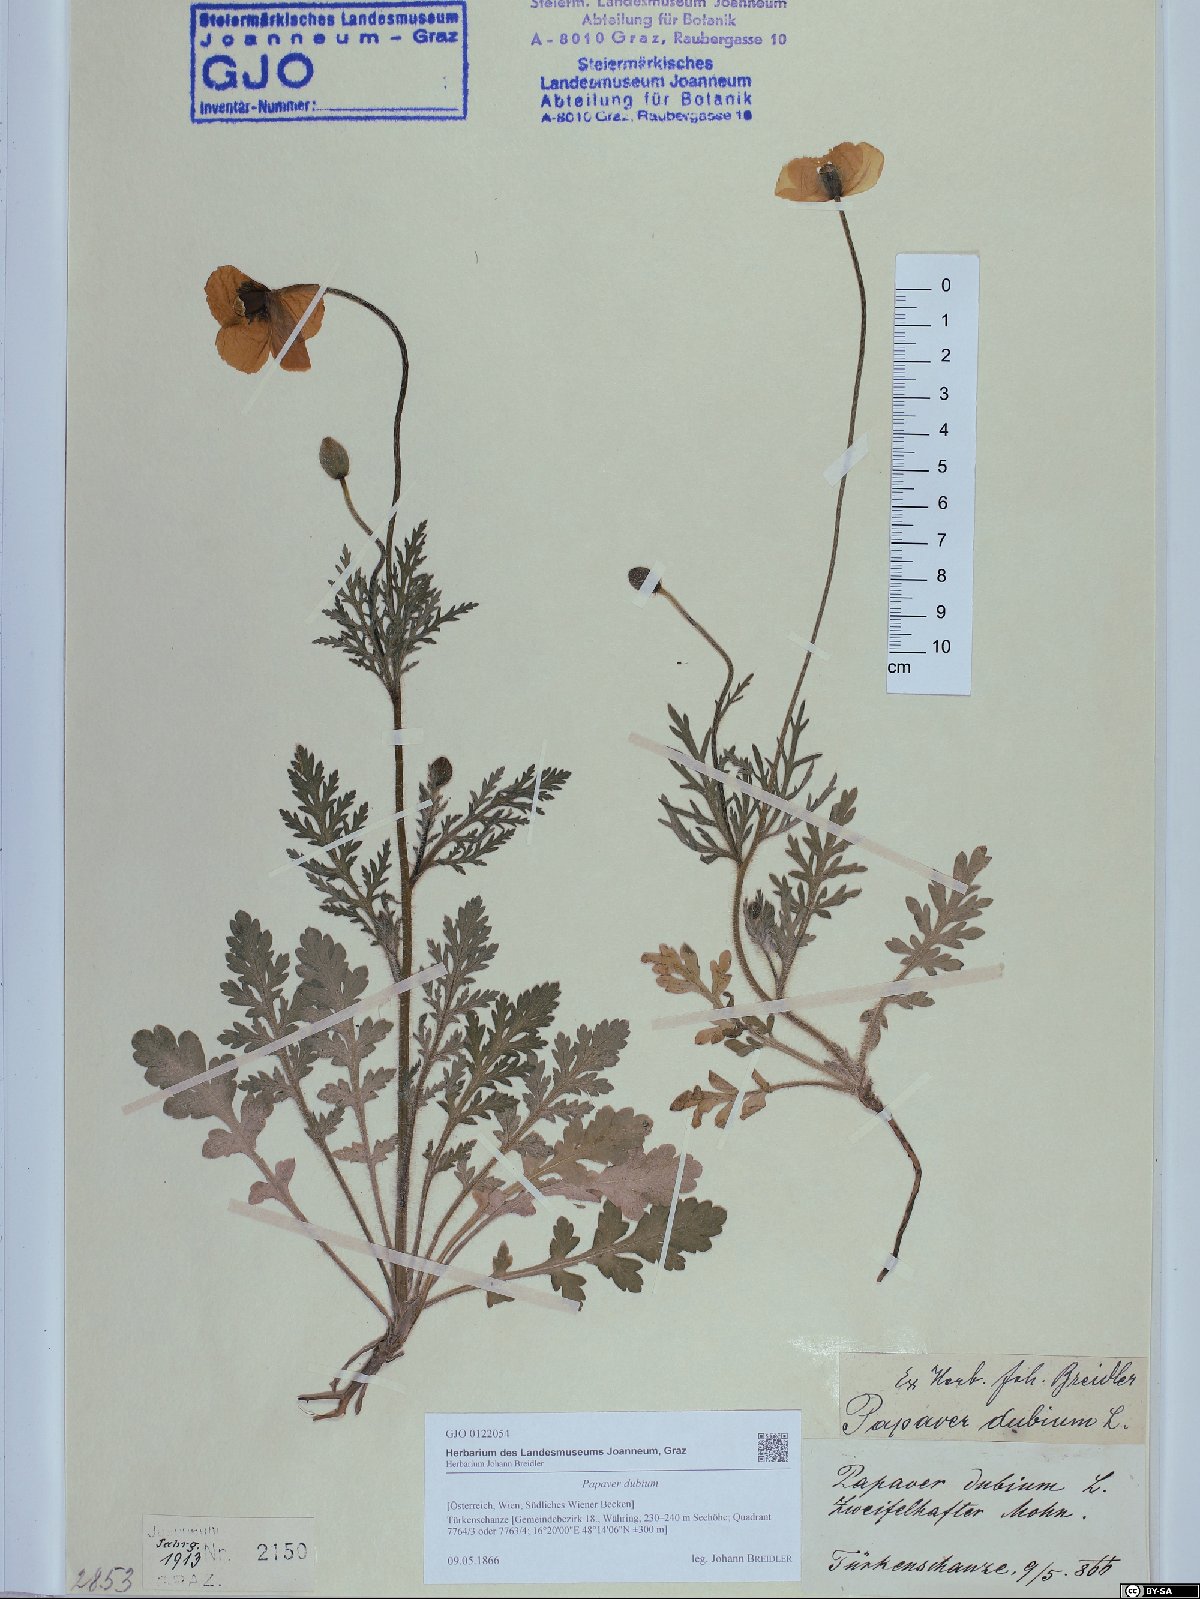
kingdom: Plantae
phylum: Tracheophyta
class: Magnoliopsida
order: Ranunculales
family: Papaveraceae
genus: Papaver
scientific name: Papaver dubium
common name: Long-headed poppy
